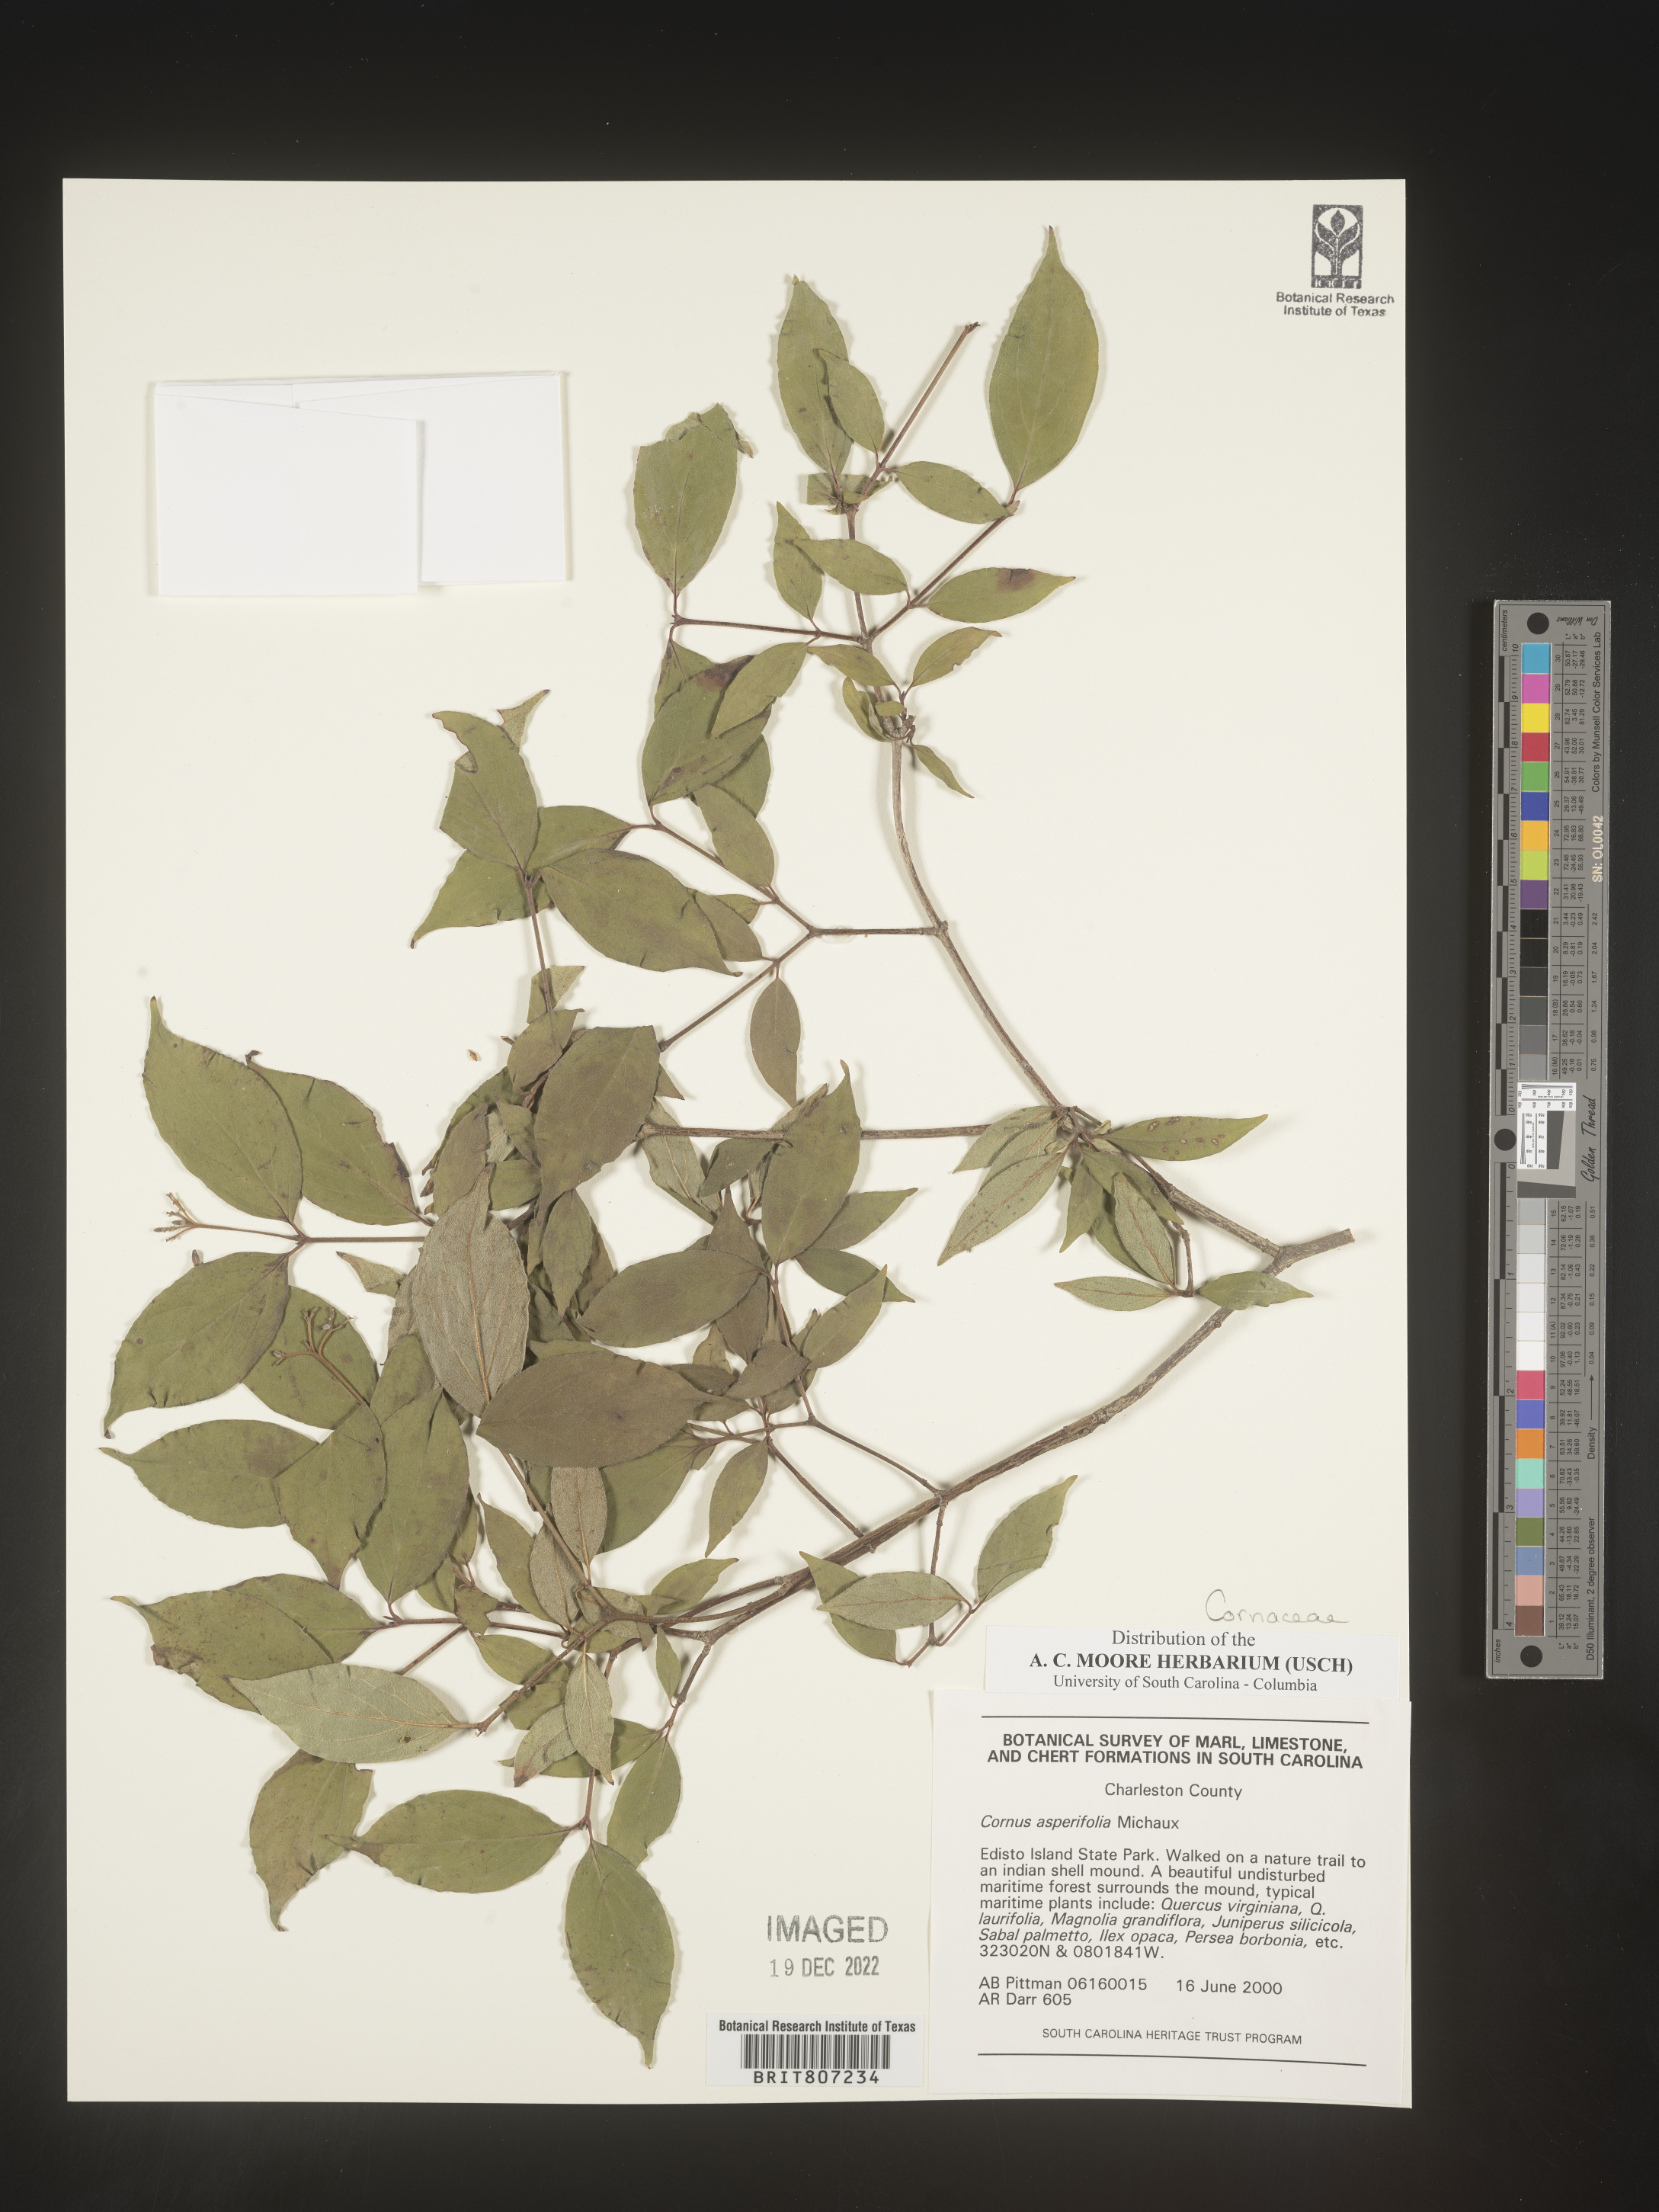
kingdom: Plantae
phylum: Tracheophyta
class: Magnoliopsida
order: Cornales
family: Cornaceae
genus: Cornus
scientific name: Cornus asperifolia
